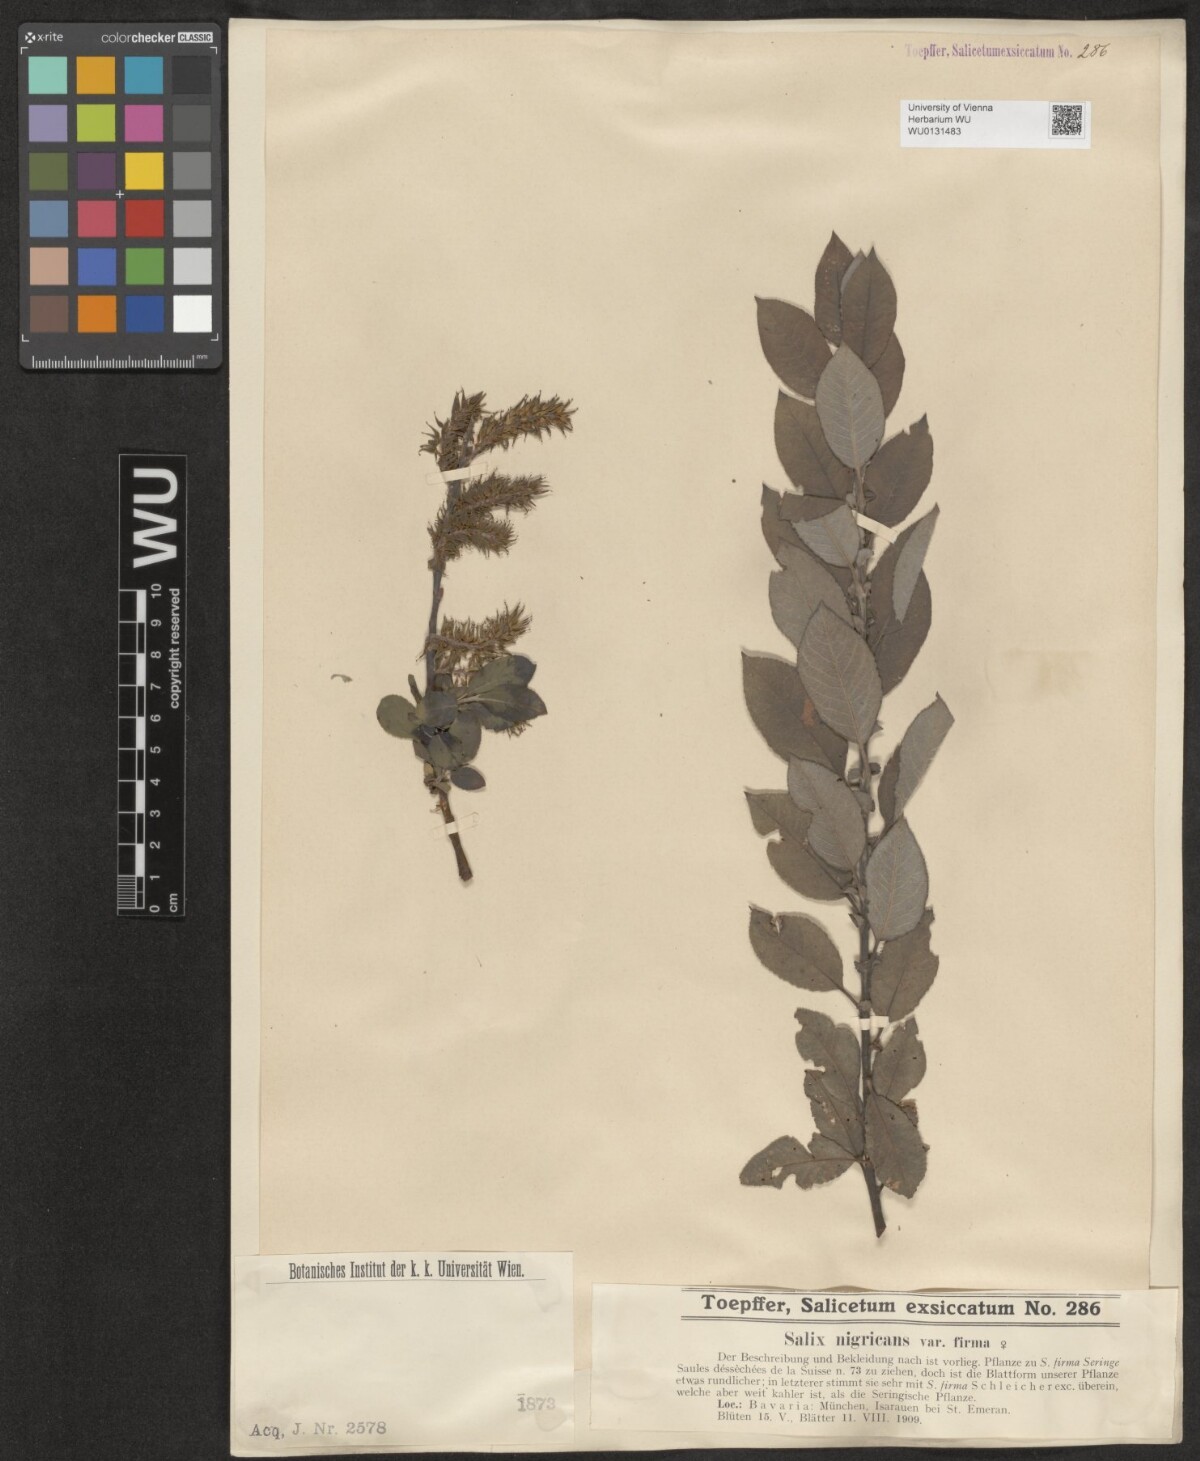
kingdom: Plantae
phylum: Tracheophyta
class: Magnoliopsida
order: Malpighiales
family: Salicaceae
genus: Salix
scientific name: Salix myrsinifolia
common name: Dark-leaved willow
